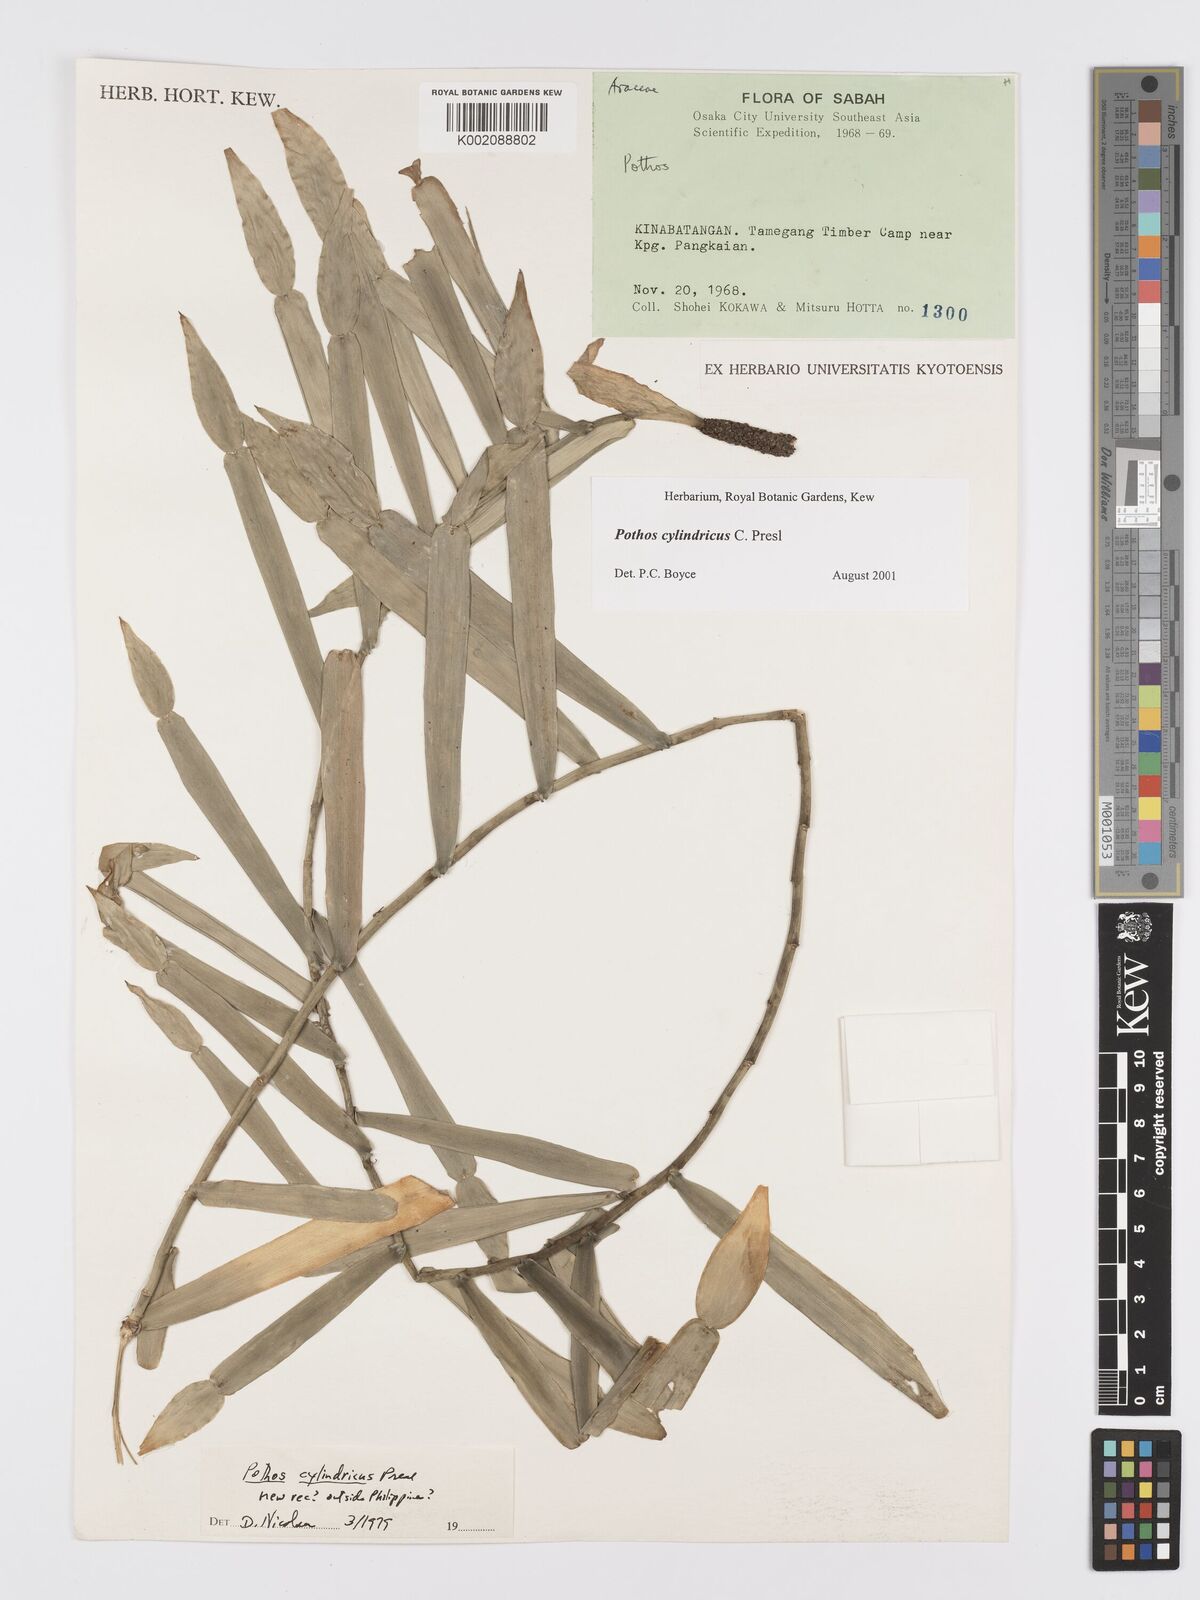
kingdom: Plantae
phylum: Tracheophyta
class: Liliopsida
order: Alismatales
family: Araceae
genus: Pothos
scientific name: Pothos cylindricus
